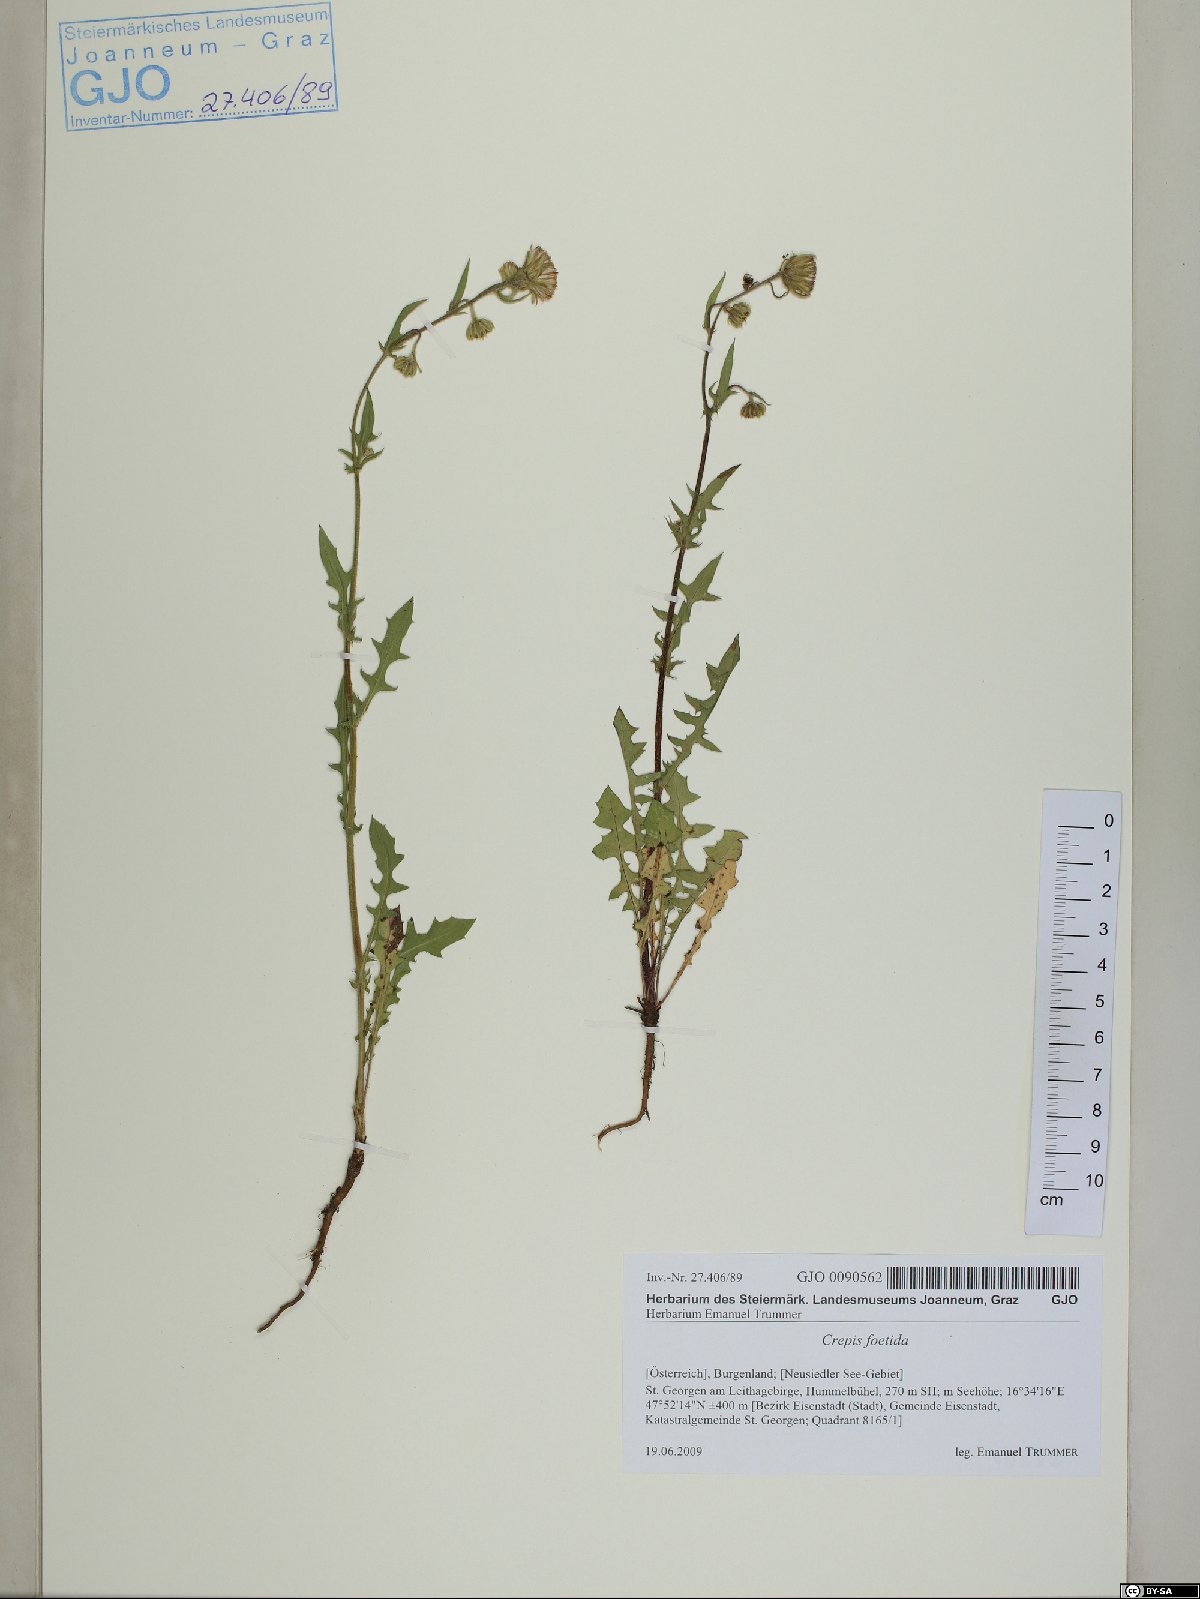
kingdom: Plantae
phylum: Tracheophyta
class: Magnoliopsida
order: Asterales
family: Asteraceae
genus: Crepis
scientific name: Crepis foetida
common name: Stinking hawk's-beard
